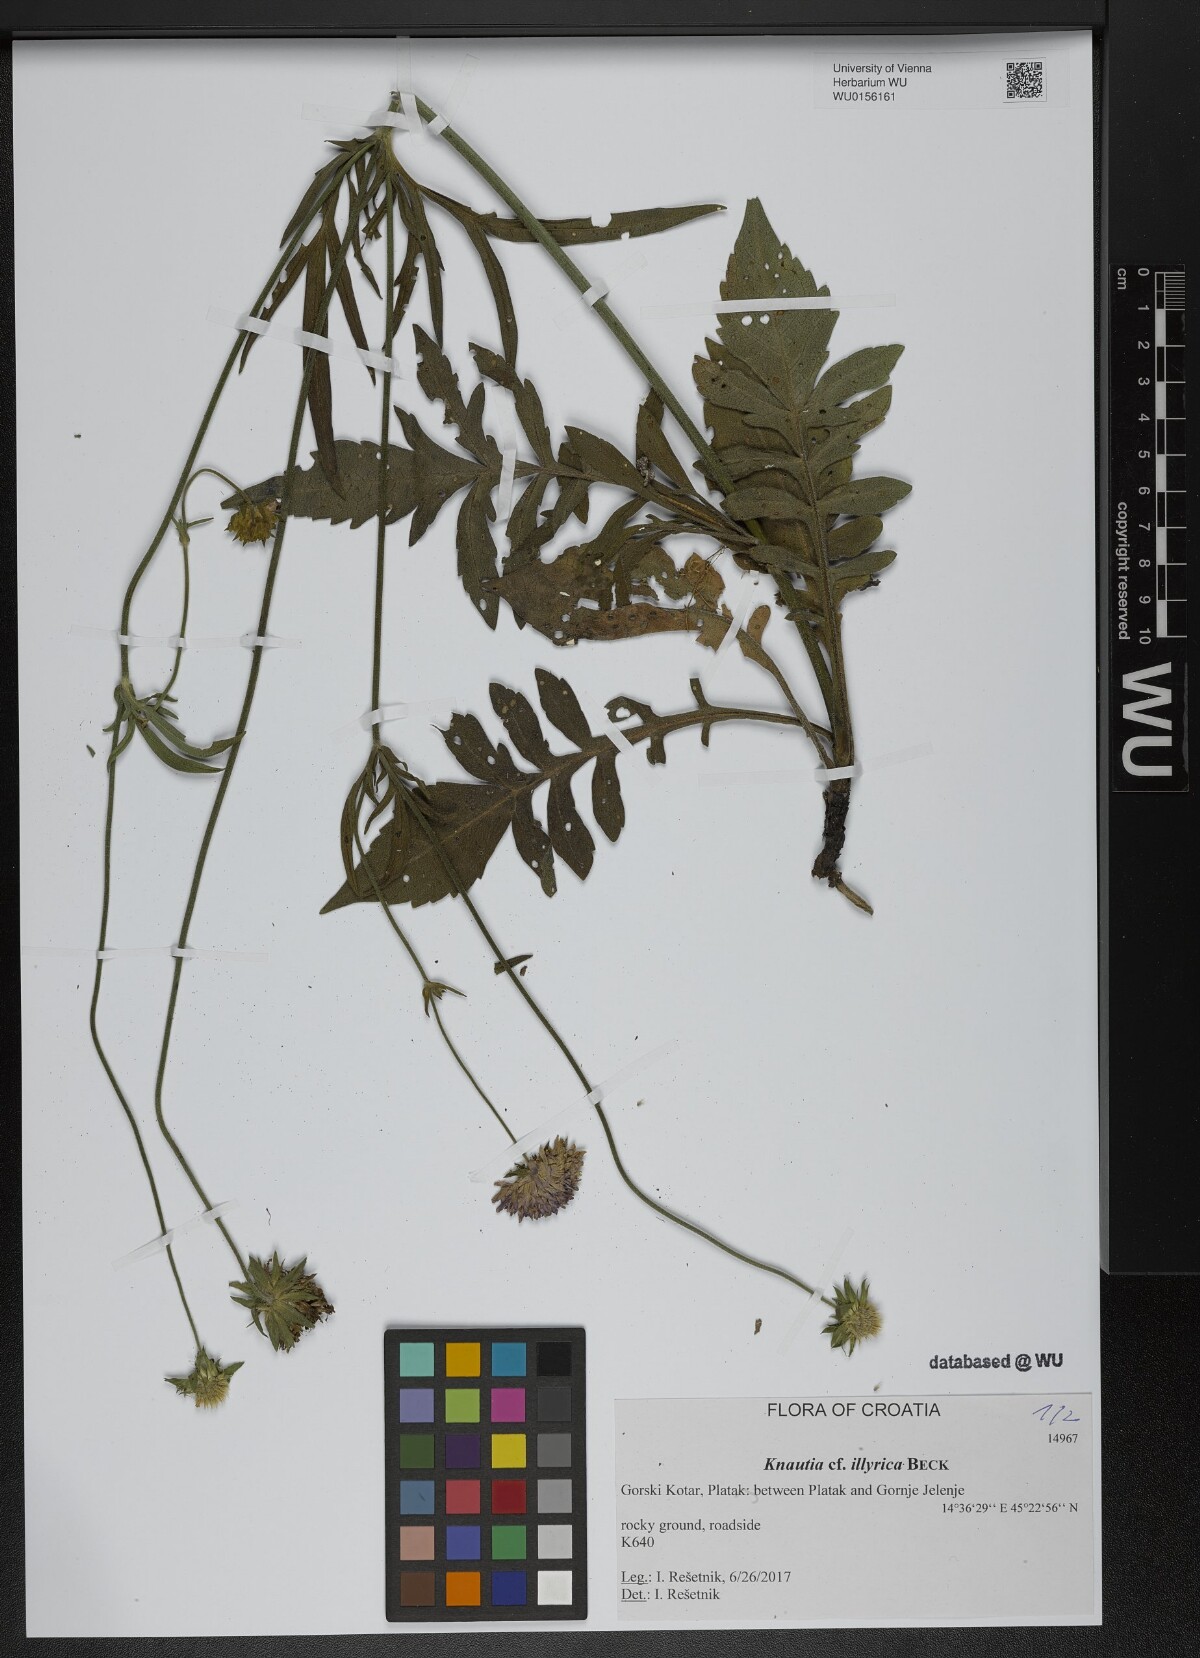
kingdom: Plantae
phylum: Tracheophyta
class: Magnoliopsida
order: Dipsacales
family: Caprifoliaceae
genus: Knautia
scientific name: Knautia illyrica
